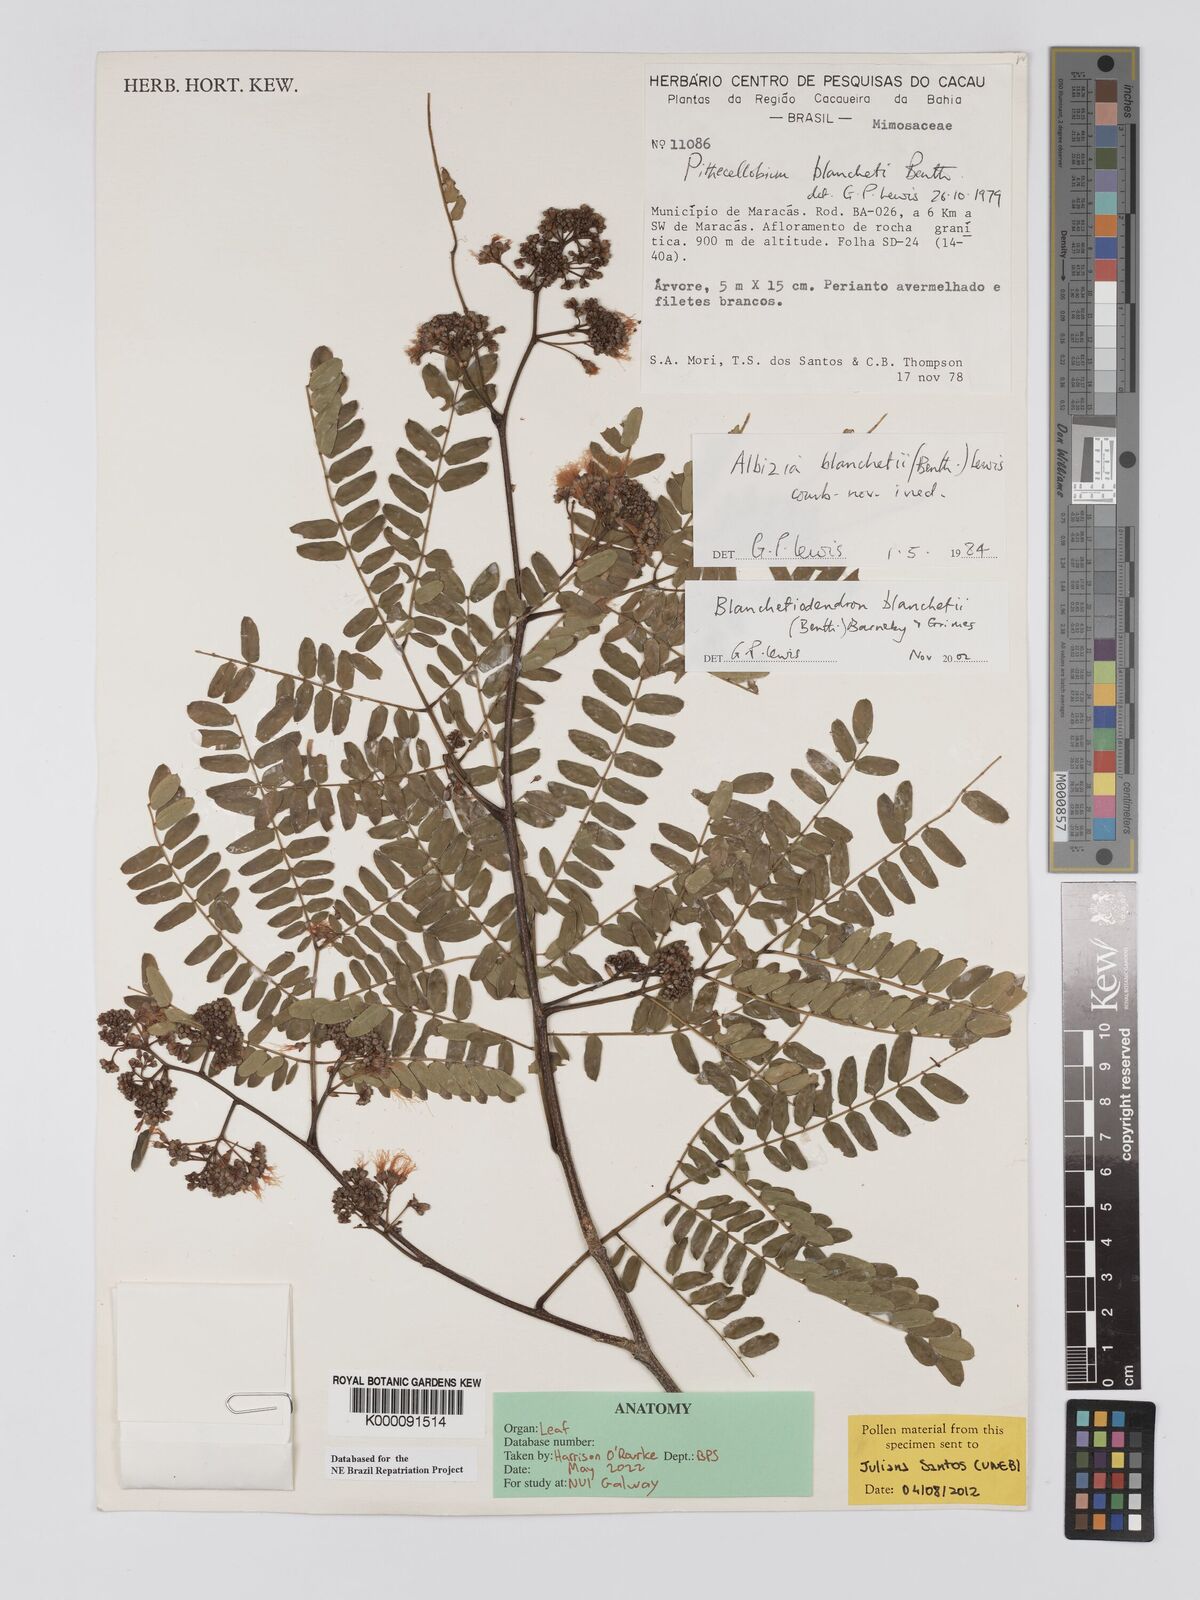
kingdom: Plantae
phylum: Tracheophyta
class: Magnoliopsida
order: Fabales
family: Fabaceae
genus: Blanchetiodendron
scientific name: Blanchetiodendron blanchetii
